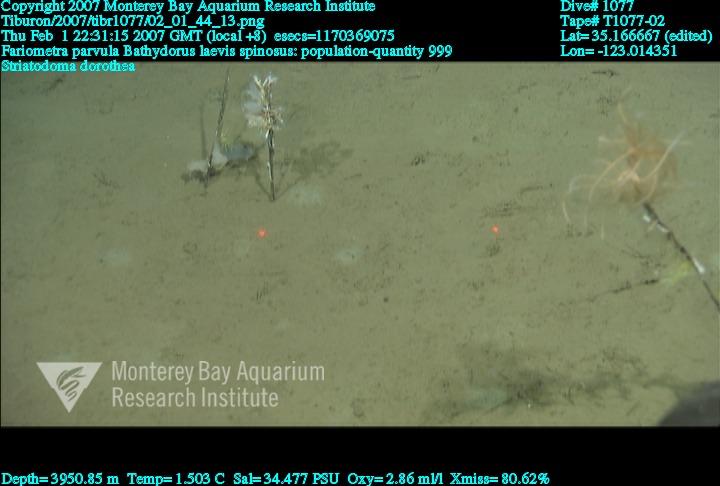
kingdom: Animalia
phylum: Porifera
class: Hexactinellida
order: Lyssacinosida
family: Rossellidae
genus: Bathydorus
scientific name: Bathydorus spinosus
